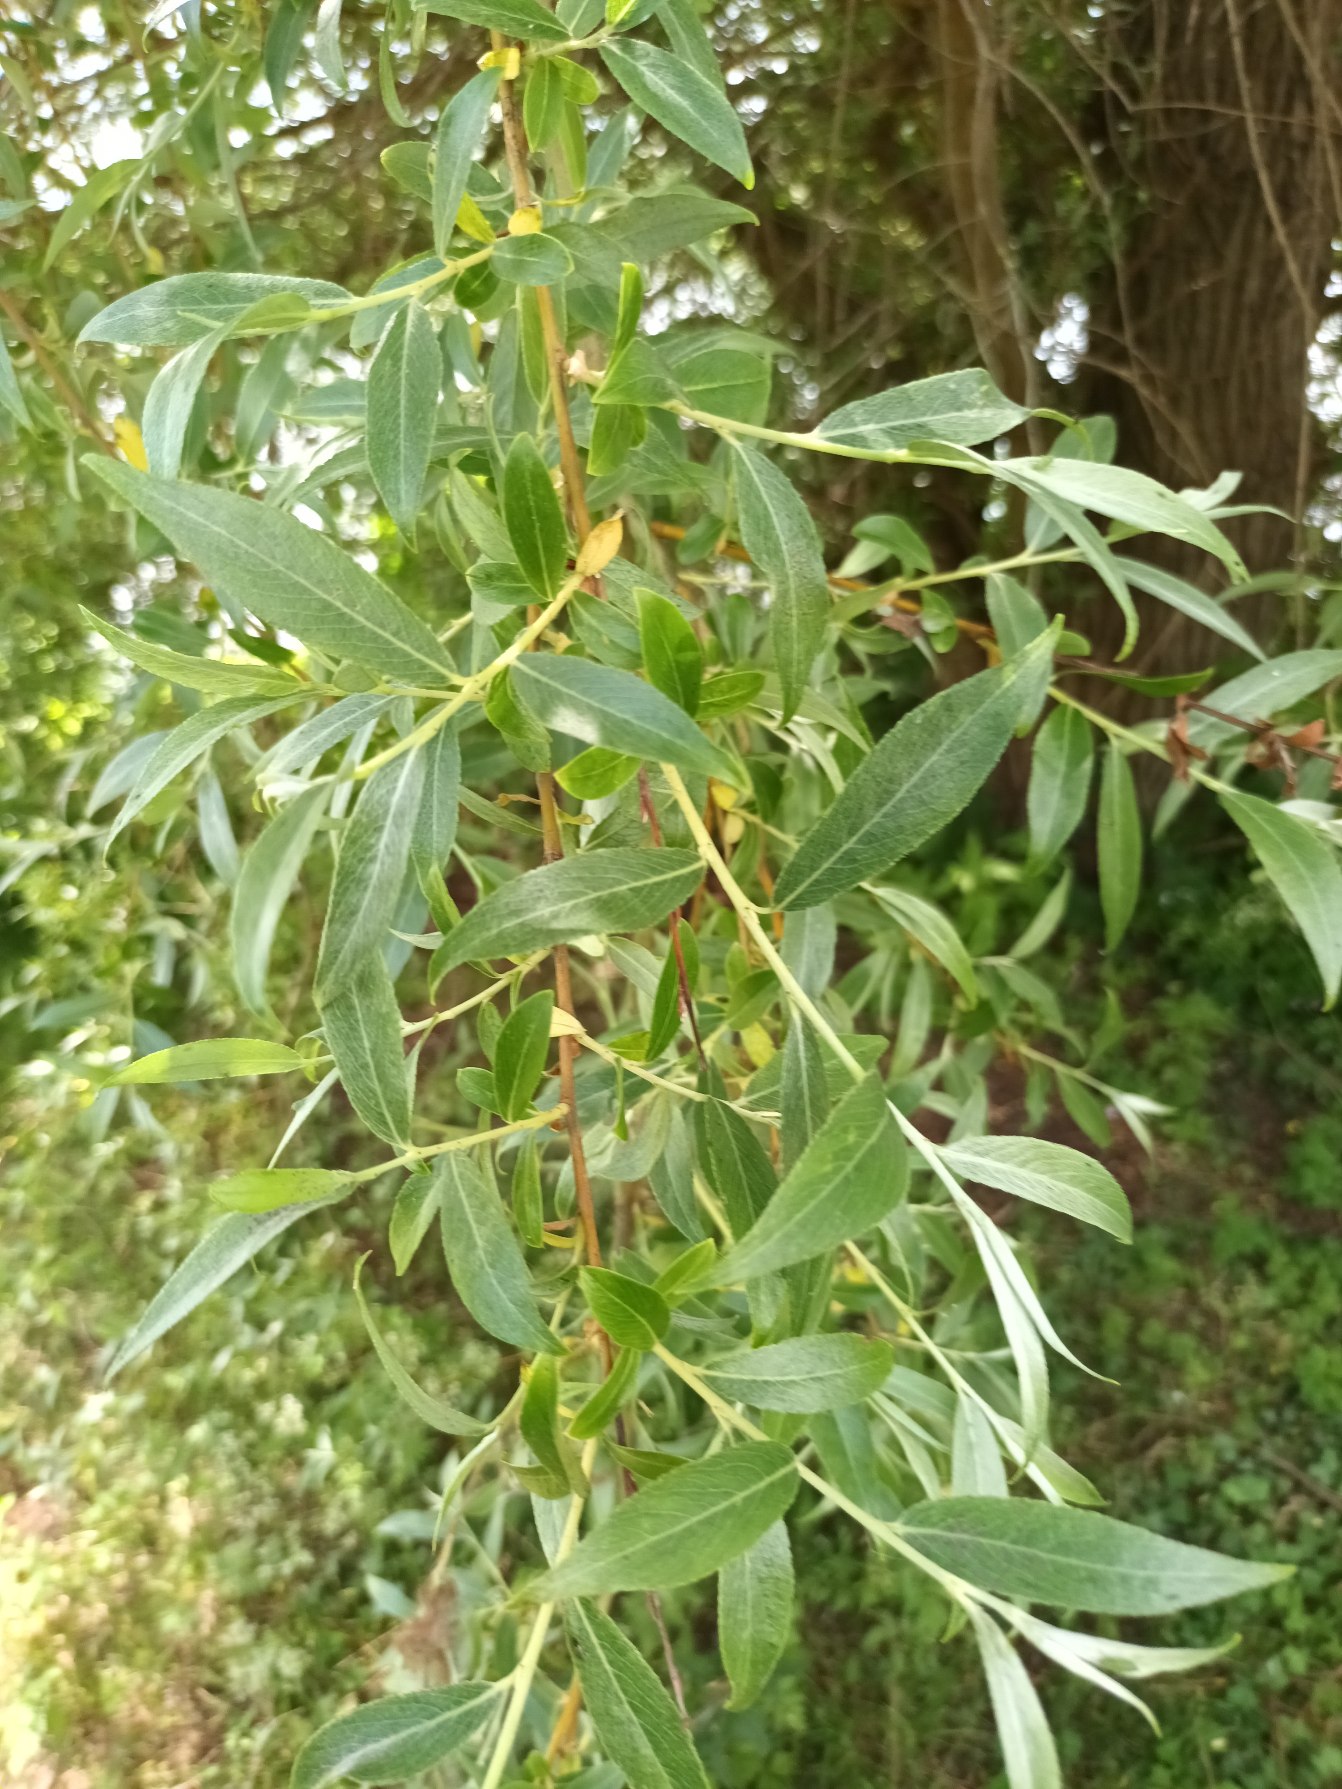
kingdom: Plantae
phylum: Tracheophyta
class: Magnoliopsida
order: Malpighiales
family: Salicaceae
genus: Salix
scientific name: Salix alba
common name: Hvid-pil
